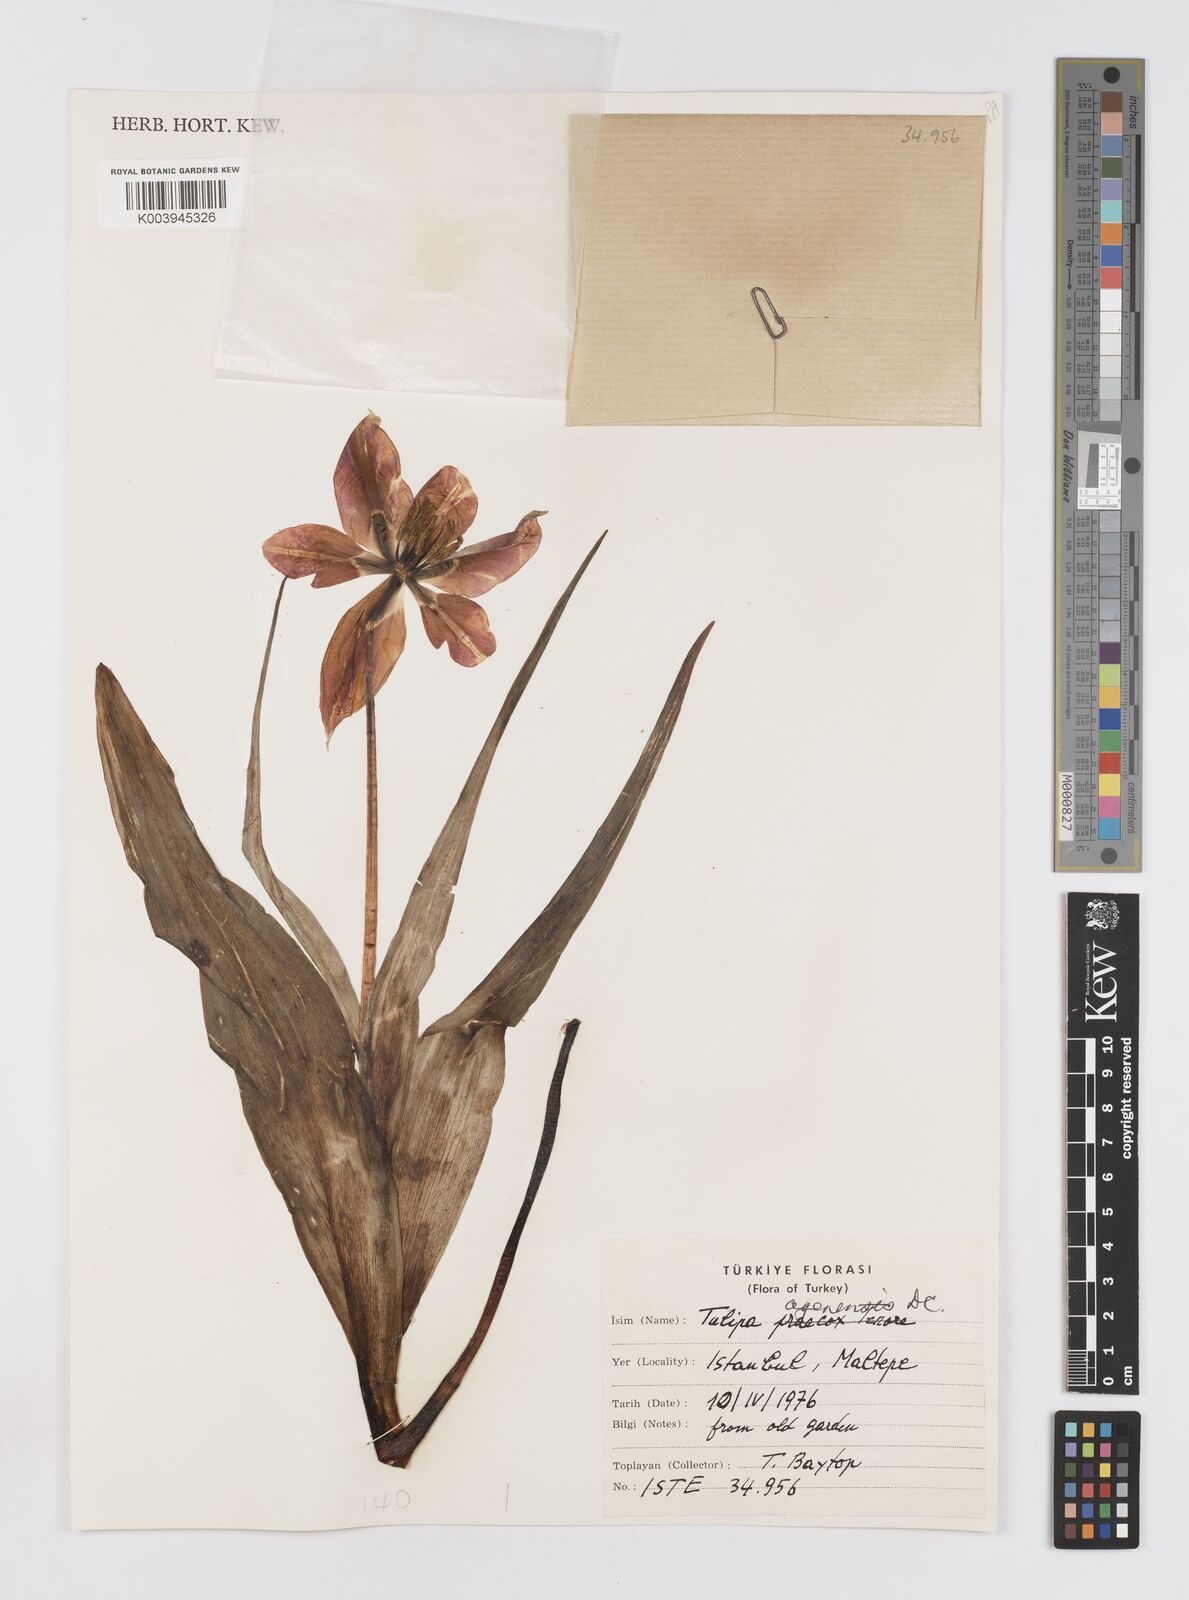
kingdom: Plantae
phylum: Tracheophyta
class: Liliopsida
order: Liliales
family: Liliaceae
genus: Tulipa
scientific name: Tulipa agenensis
